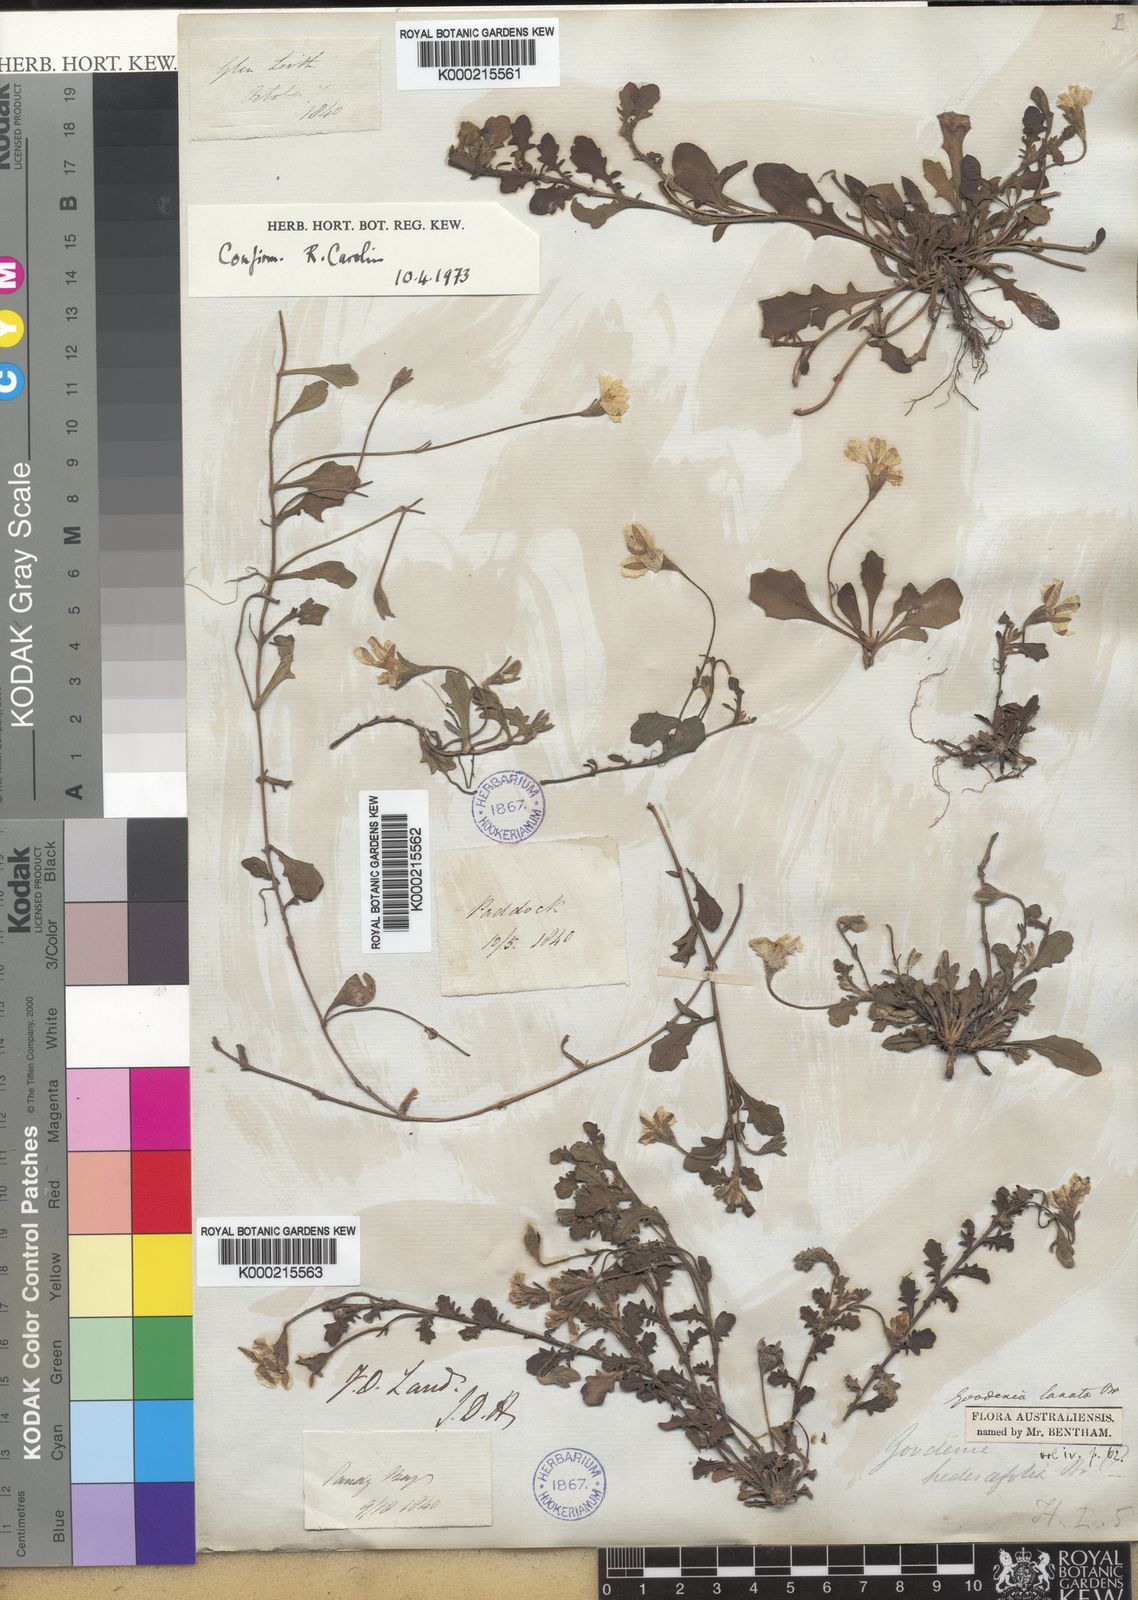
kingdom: Plantae
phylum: Tracheophyta
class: Magnoliopsida
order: Asterales
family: Goodeniaceae
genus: Goodenia
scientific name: Goodenia lanata
